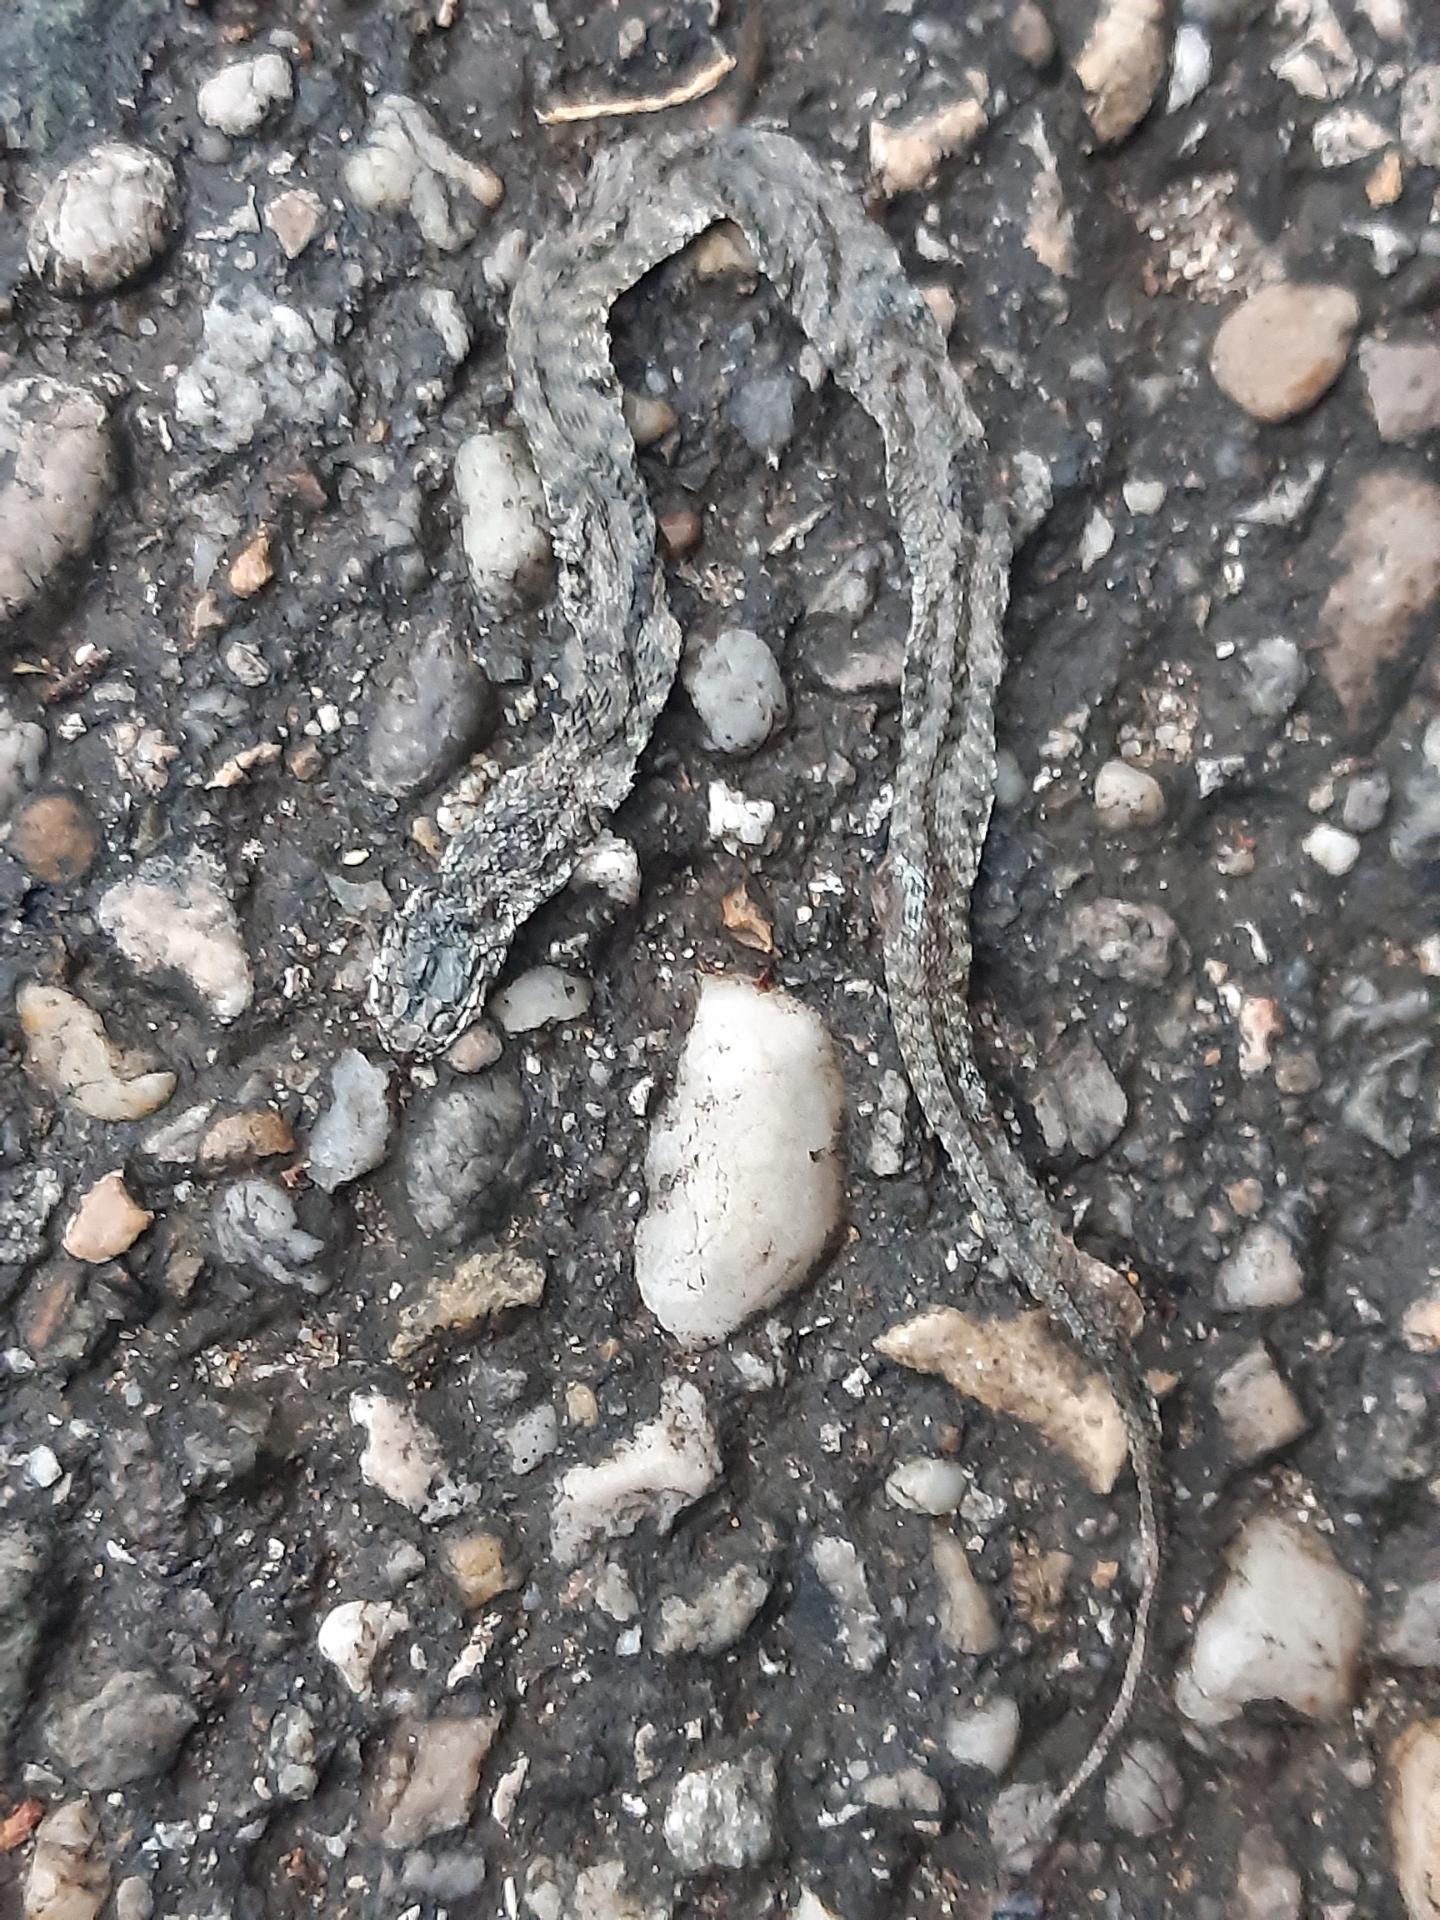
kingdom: Animalia
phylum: Chordata
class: Squamata
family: Colubridae
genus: Natrix
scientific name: Natrix tessellata
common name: Dice snake
